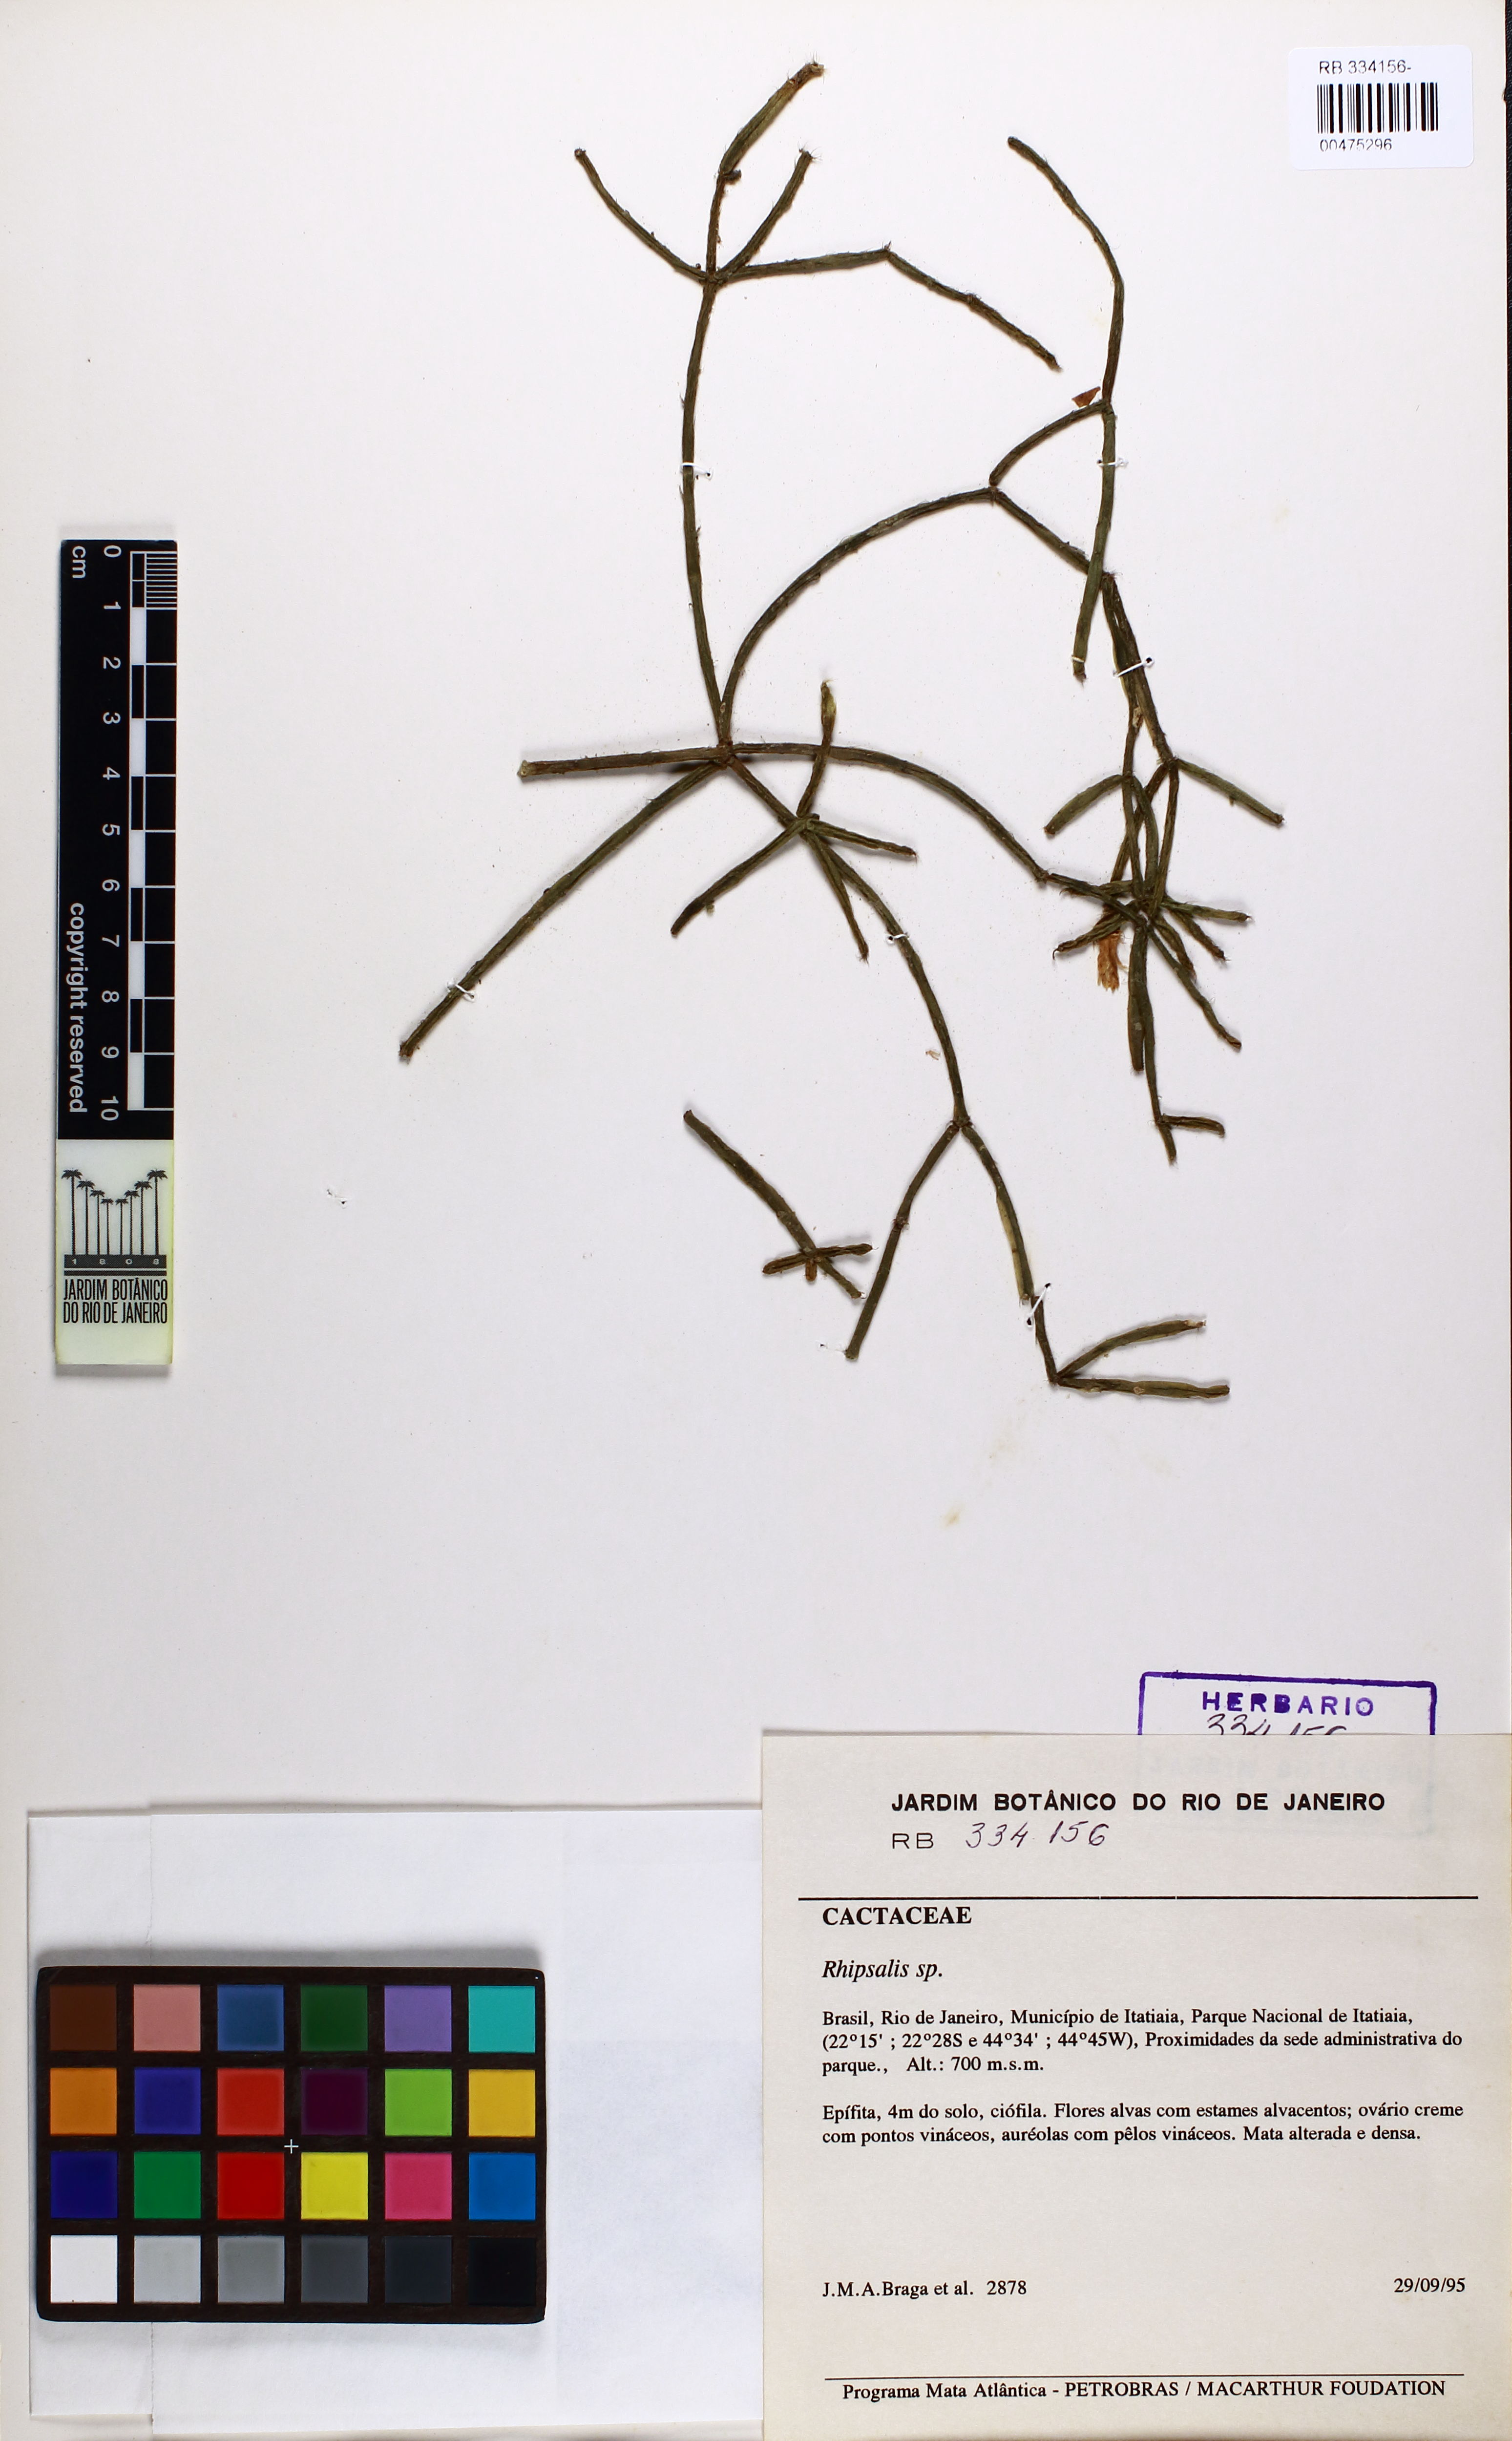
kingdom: Plantae
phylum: Tracheophyta
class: Magnoliopsida
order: Caryophyllales
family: Cactaceae
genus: Rhipsalis
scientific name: Rhipsalis pilocarpa
